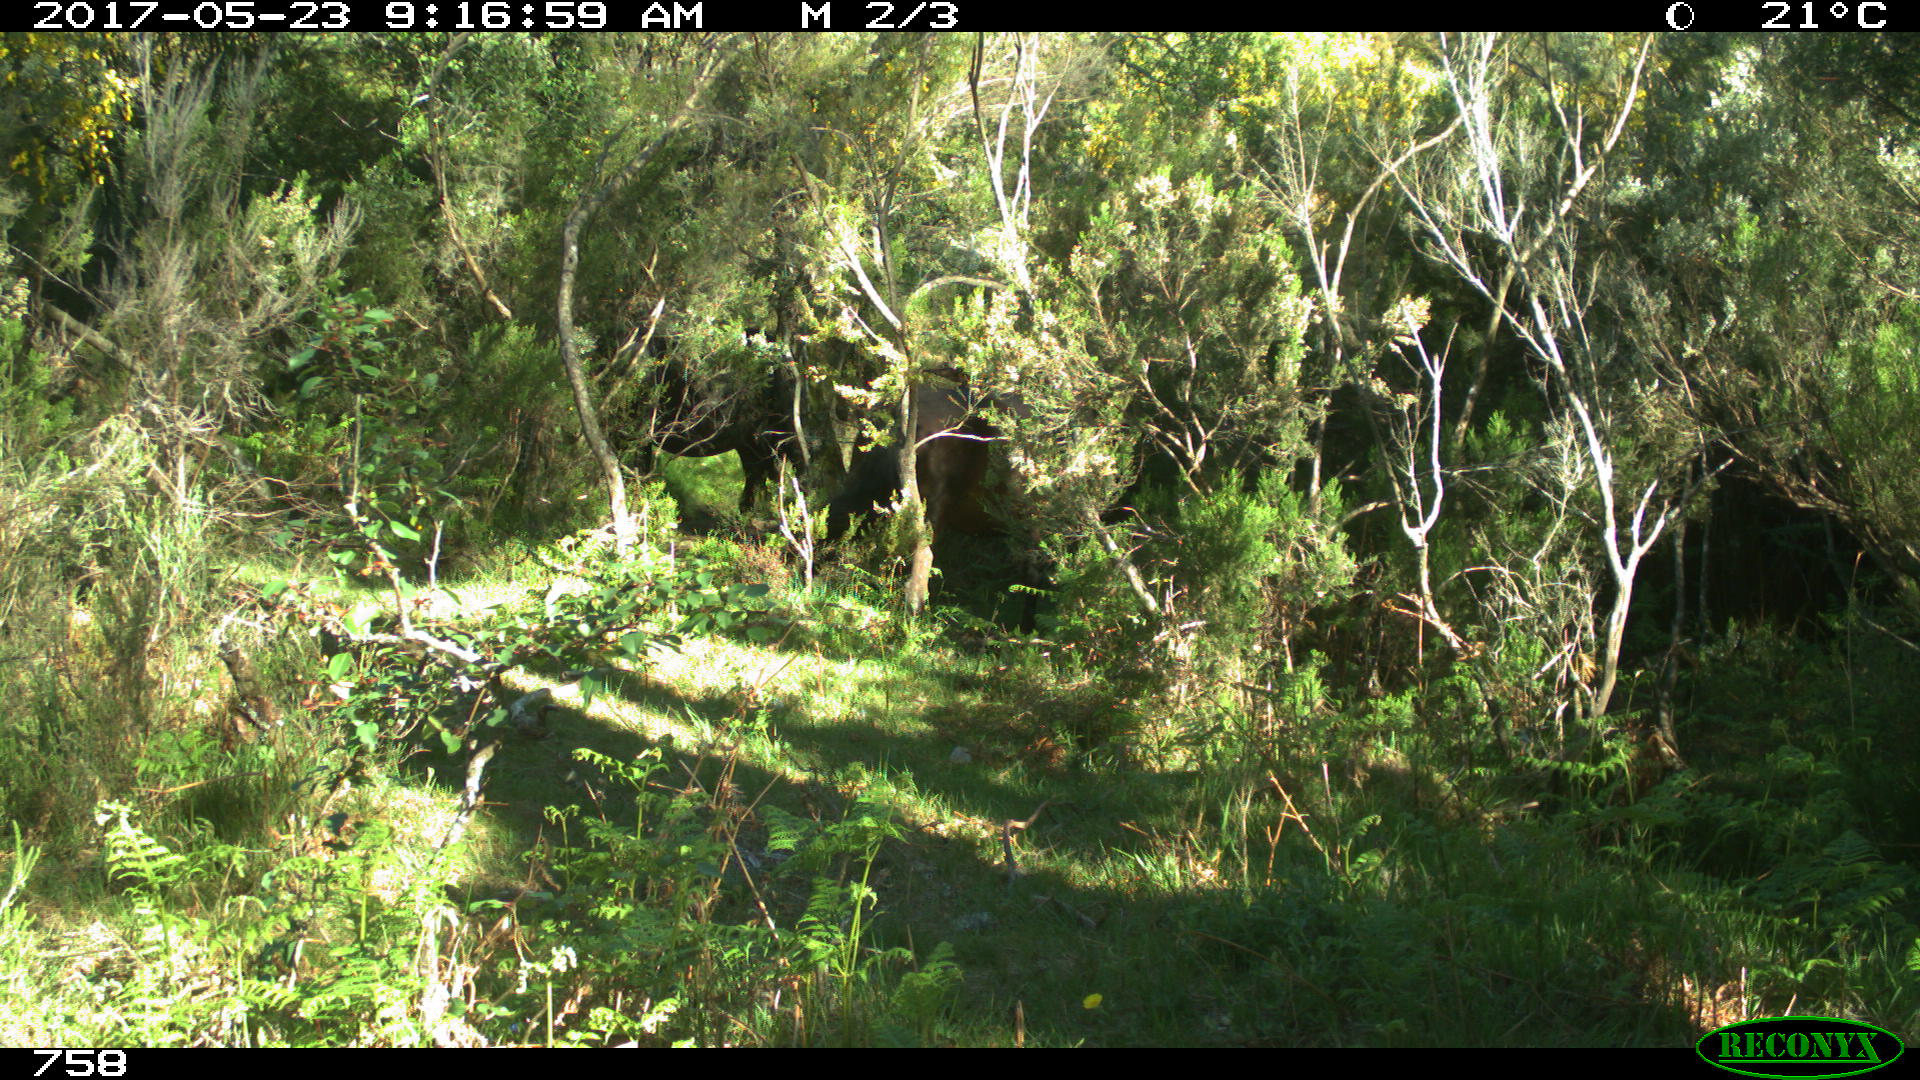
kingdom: Animalia
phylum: Chordata
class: Mammalia
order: Perissodactyla
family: Equidae
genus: Equus
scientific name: Equus caballus
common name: Horse
